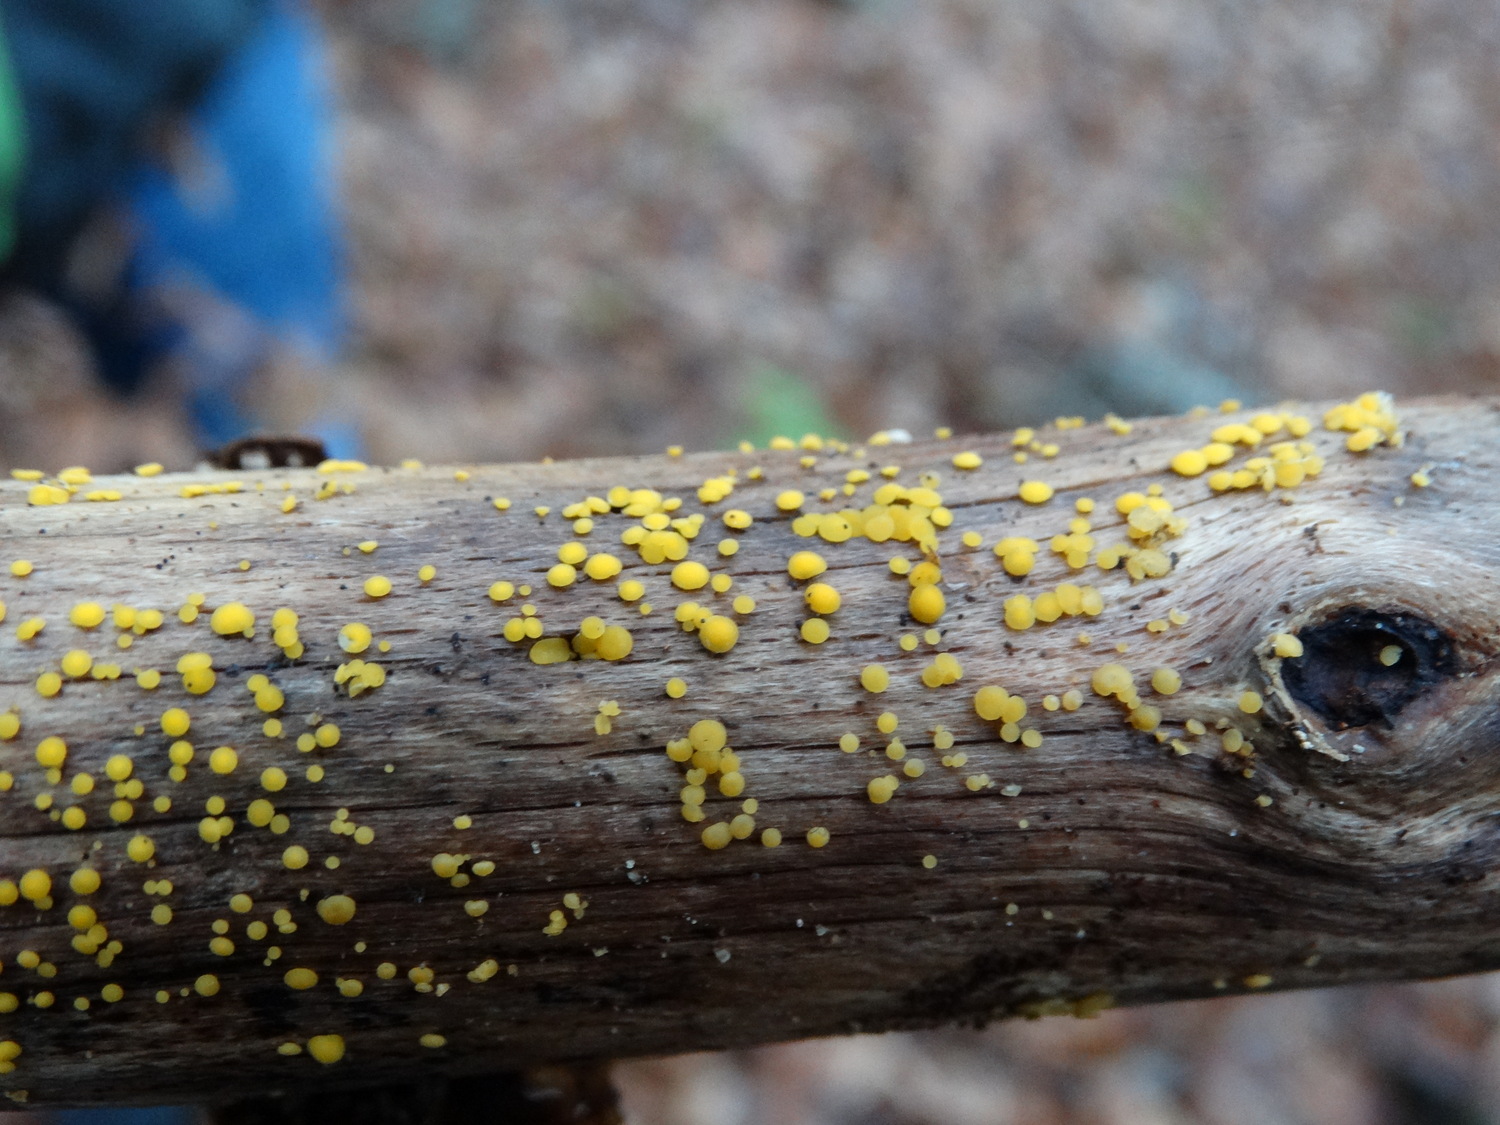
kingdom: Fungi
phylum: Ascomycota
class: Leotiomycetes
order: Helotiales
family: Pezizellaceae
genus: Calycina
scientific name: Calycina citrina
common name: almindelig gulskive
